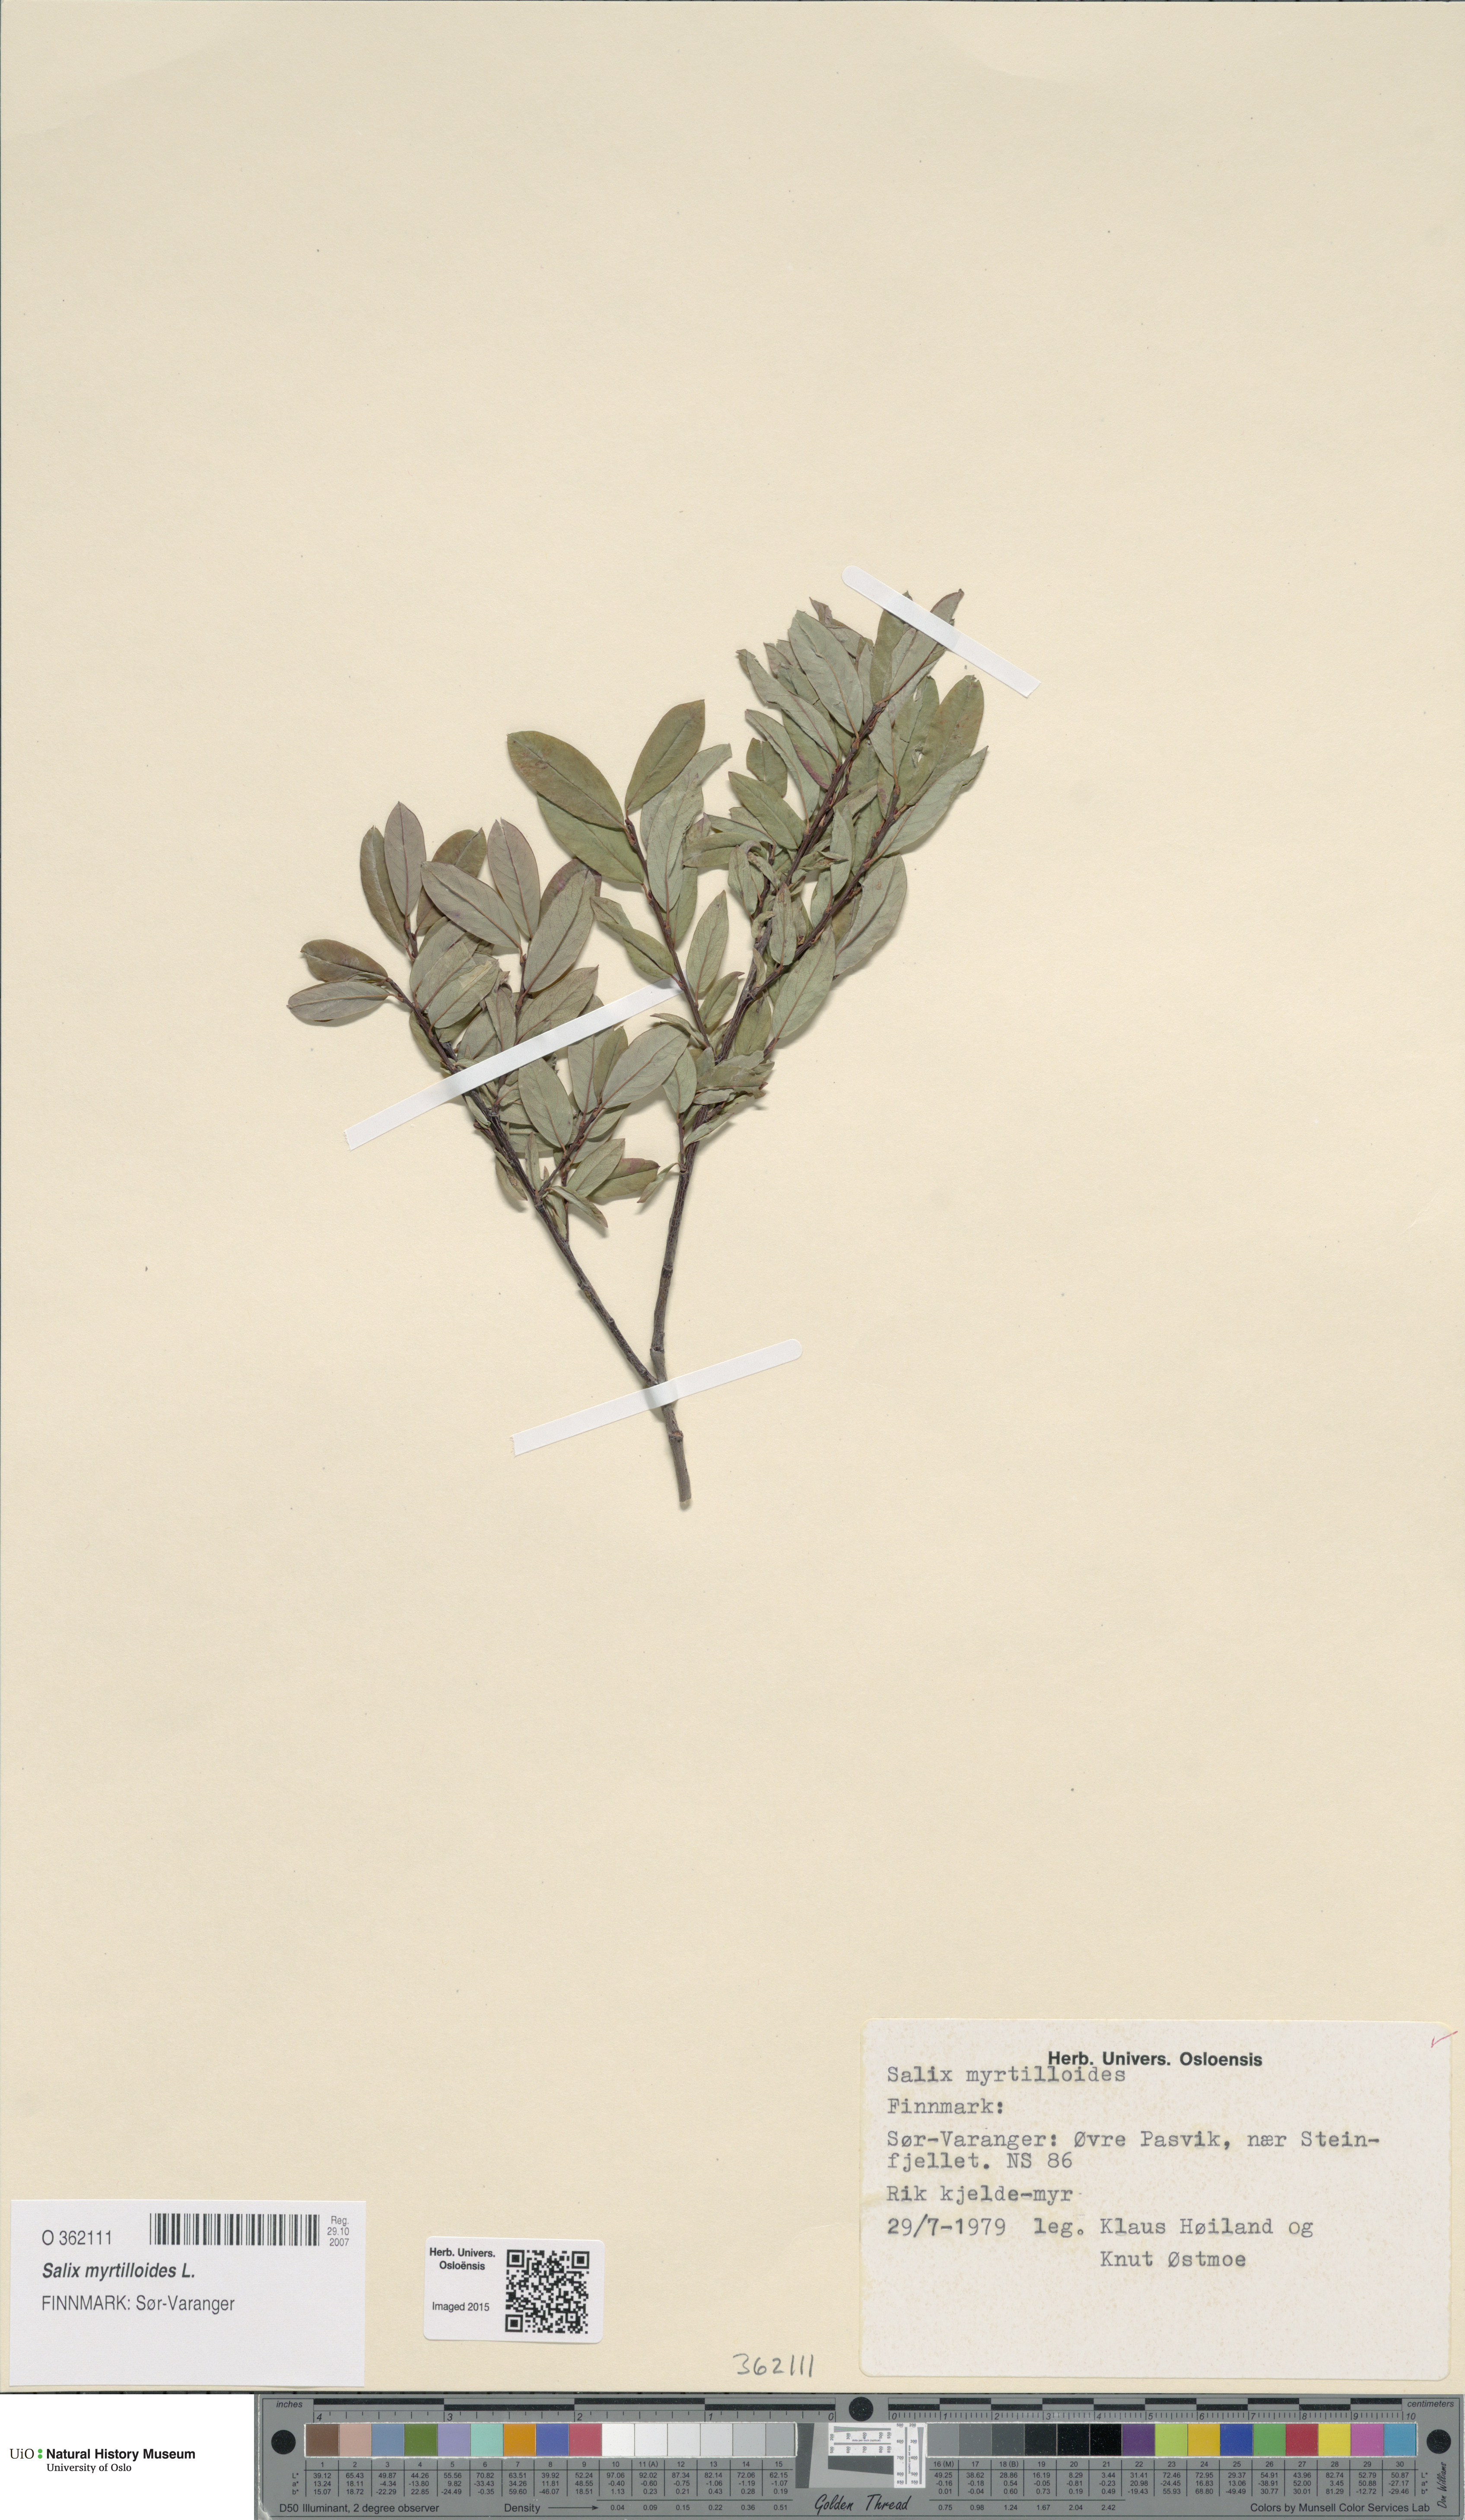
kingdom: Plantae
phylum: Tracheophyta
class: Magnoliopsida
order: Malpighiales
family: Salicaceae
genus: Salix
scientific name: Salix myrtilloides
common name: Myrtle-leaved willow
